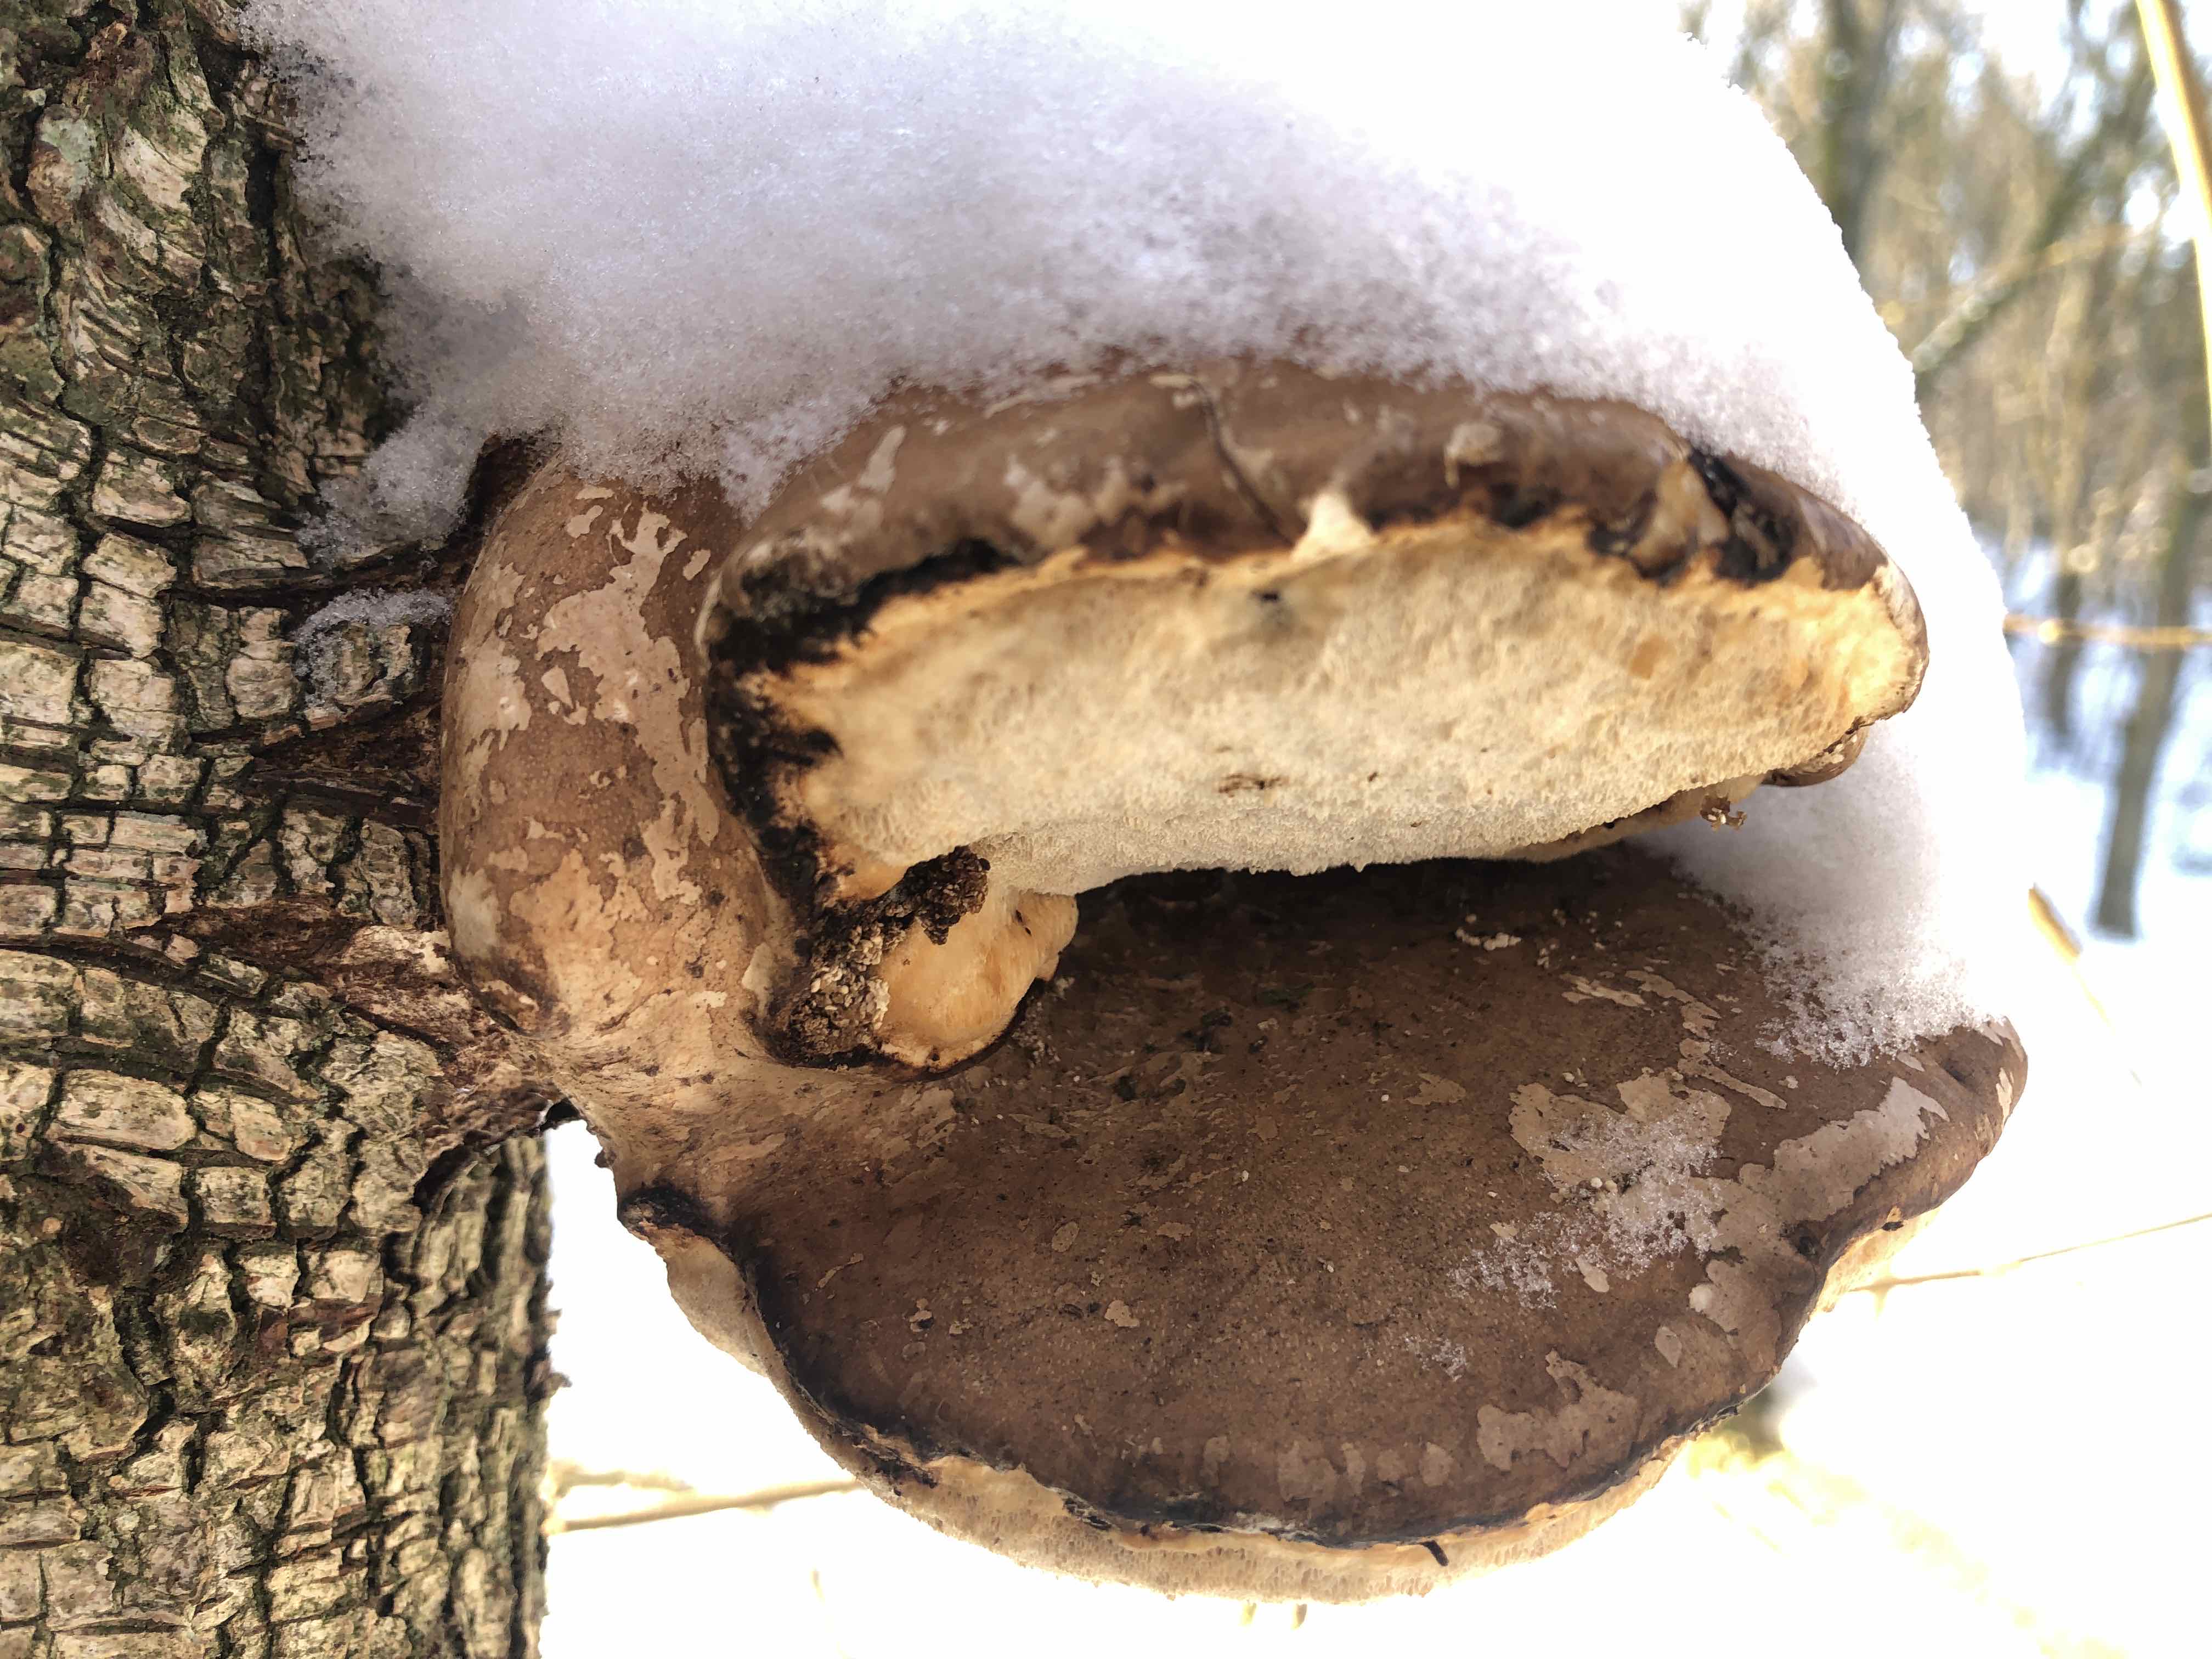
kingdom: Fungi
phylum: Basidiomycota
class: Agaricomycetes
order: Polyporales
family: Fomitopsidaceae
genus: Fomitopsis
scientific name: Fomitopsis betulina
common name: birkeporesvamp
